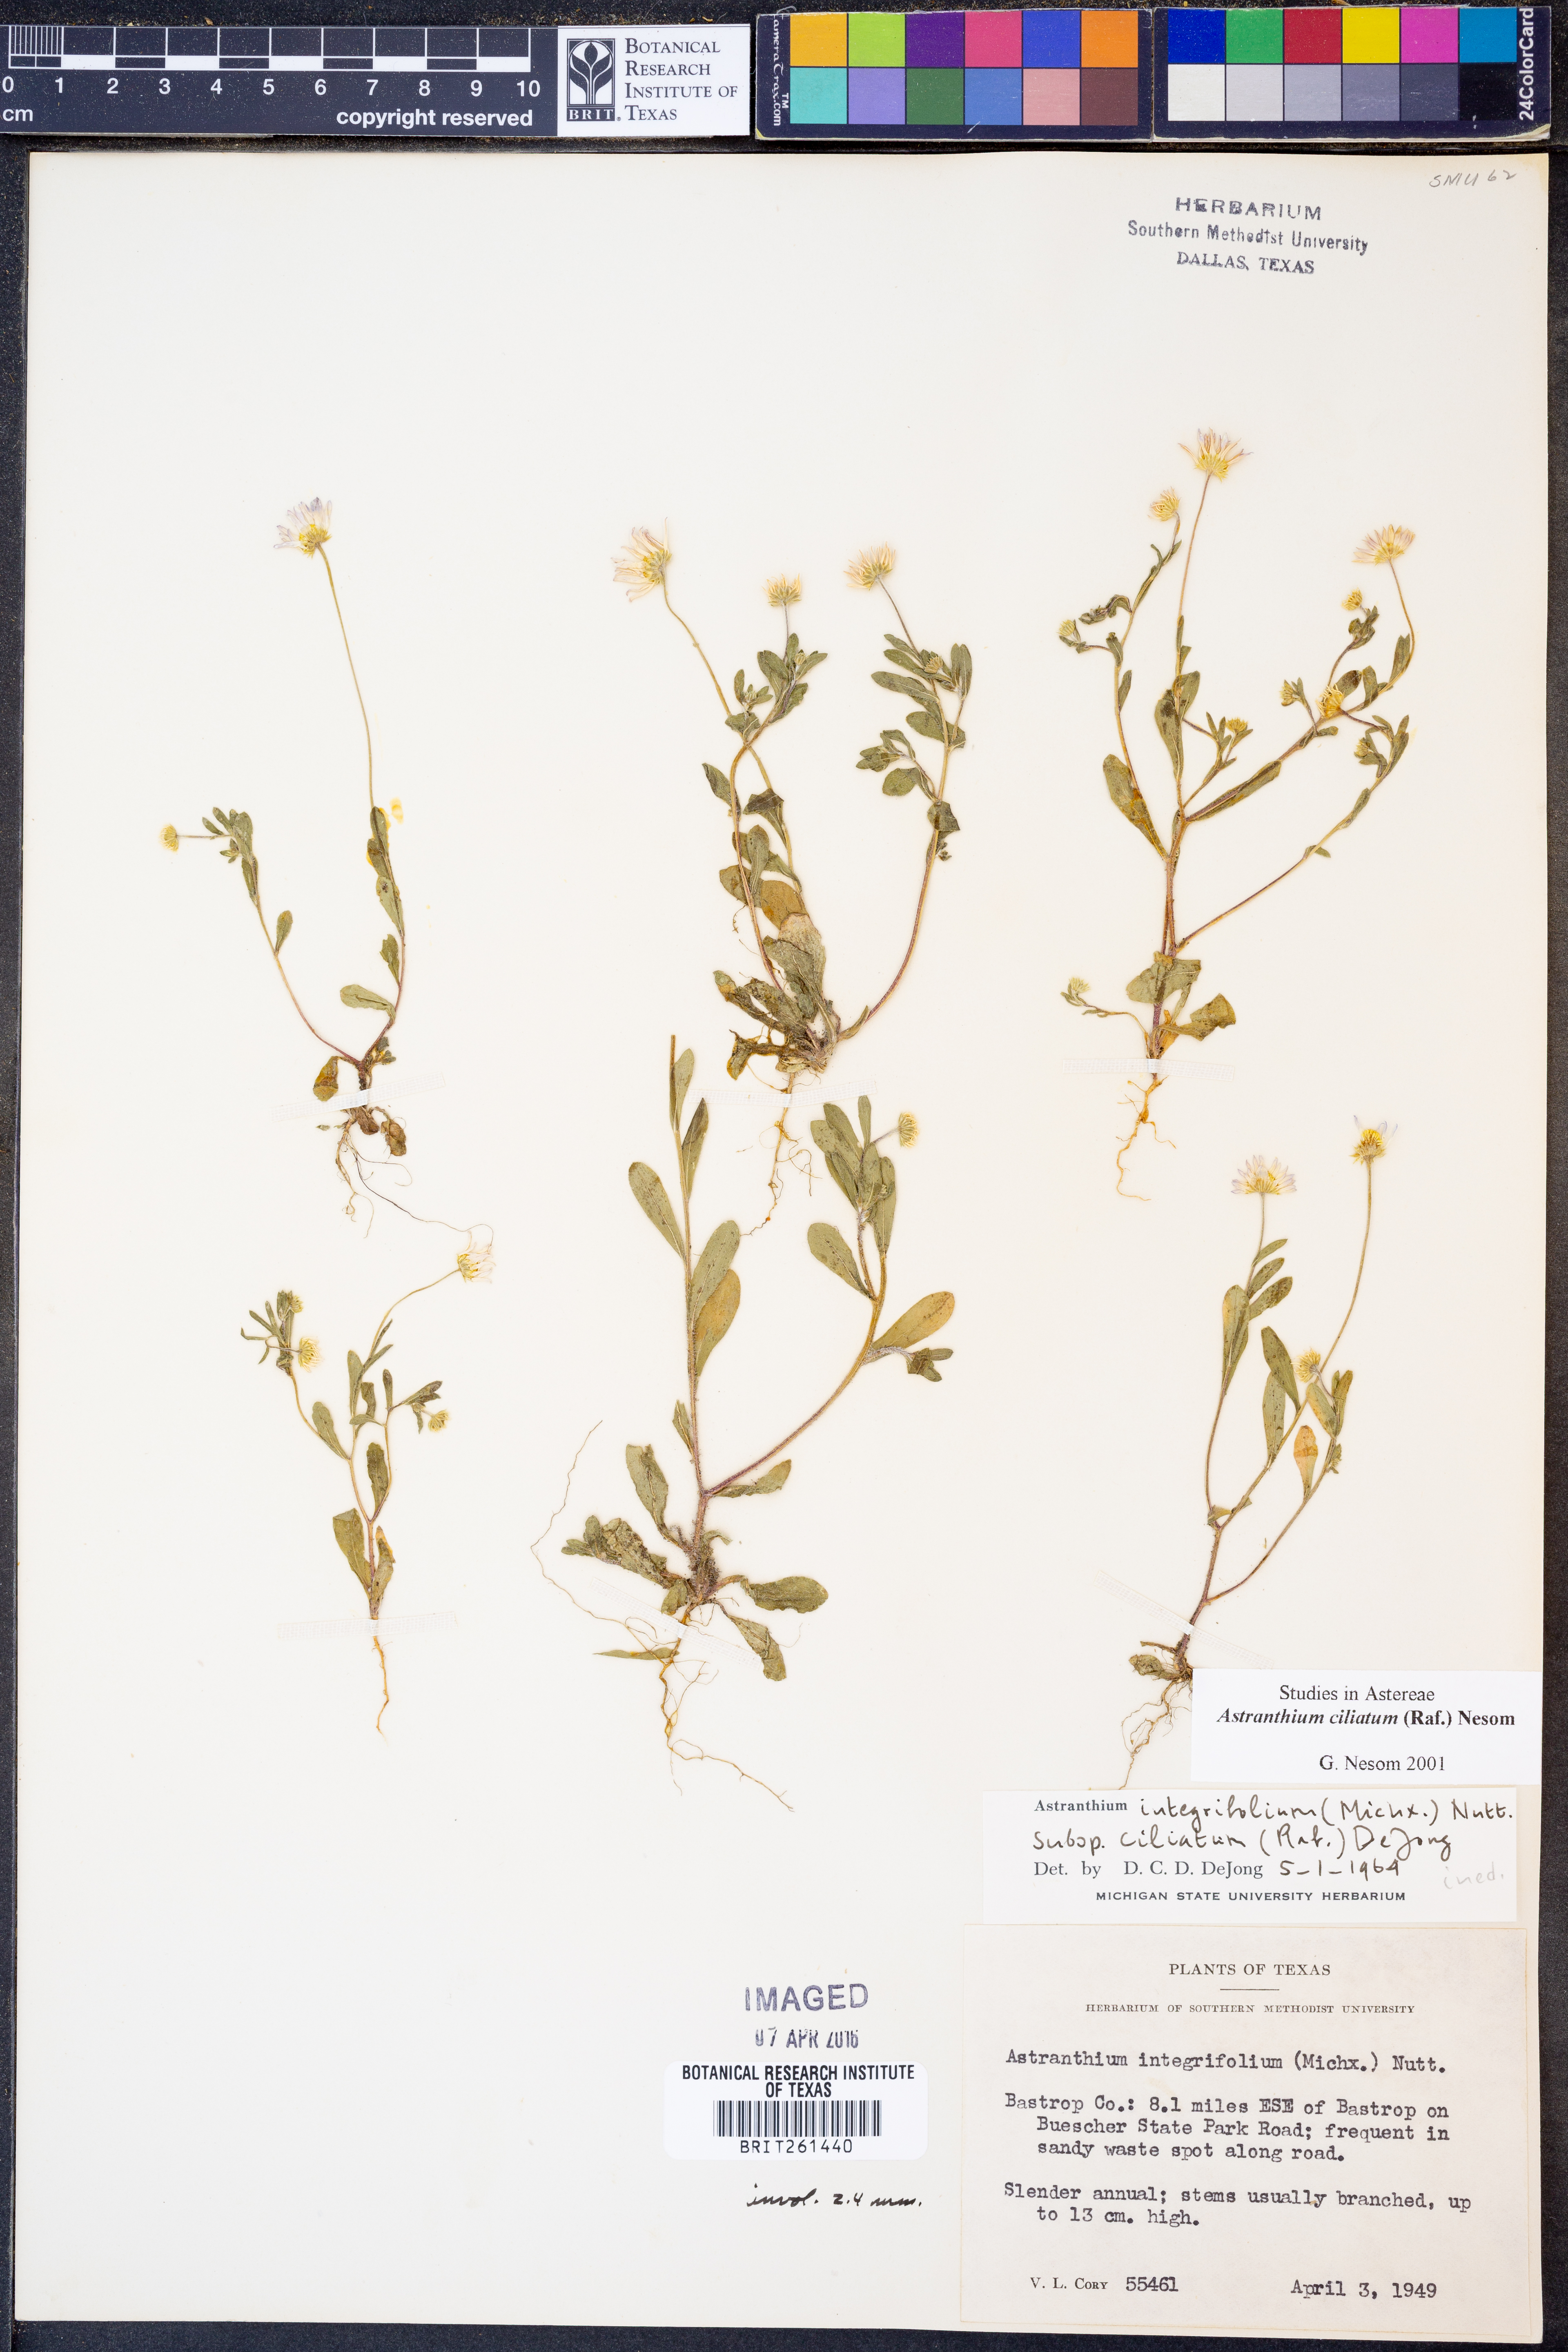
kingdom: Plantae
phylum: Tracheophyta
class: Magnoliopsida
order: Asterales
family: Asteraceae
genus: Astranthium
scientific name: Astranthium ciliatum
